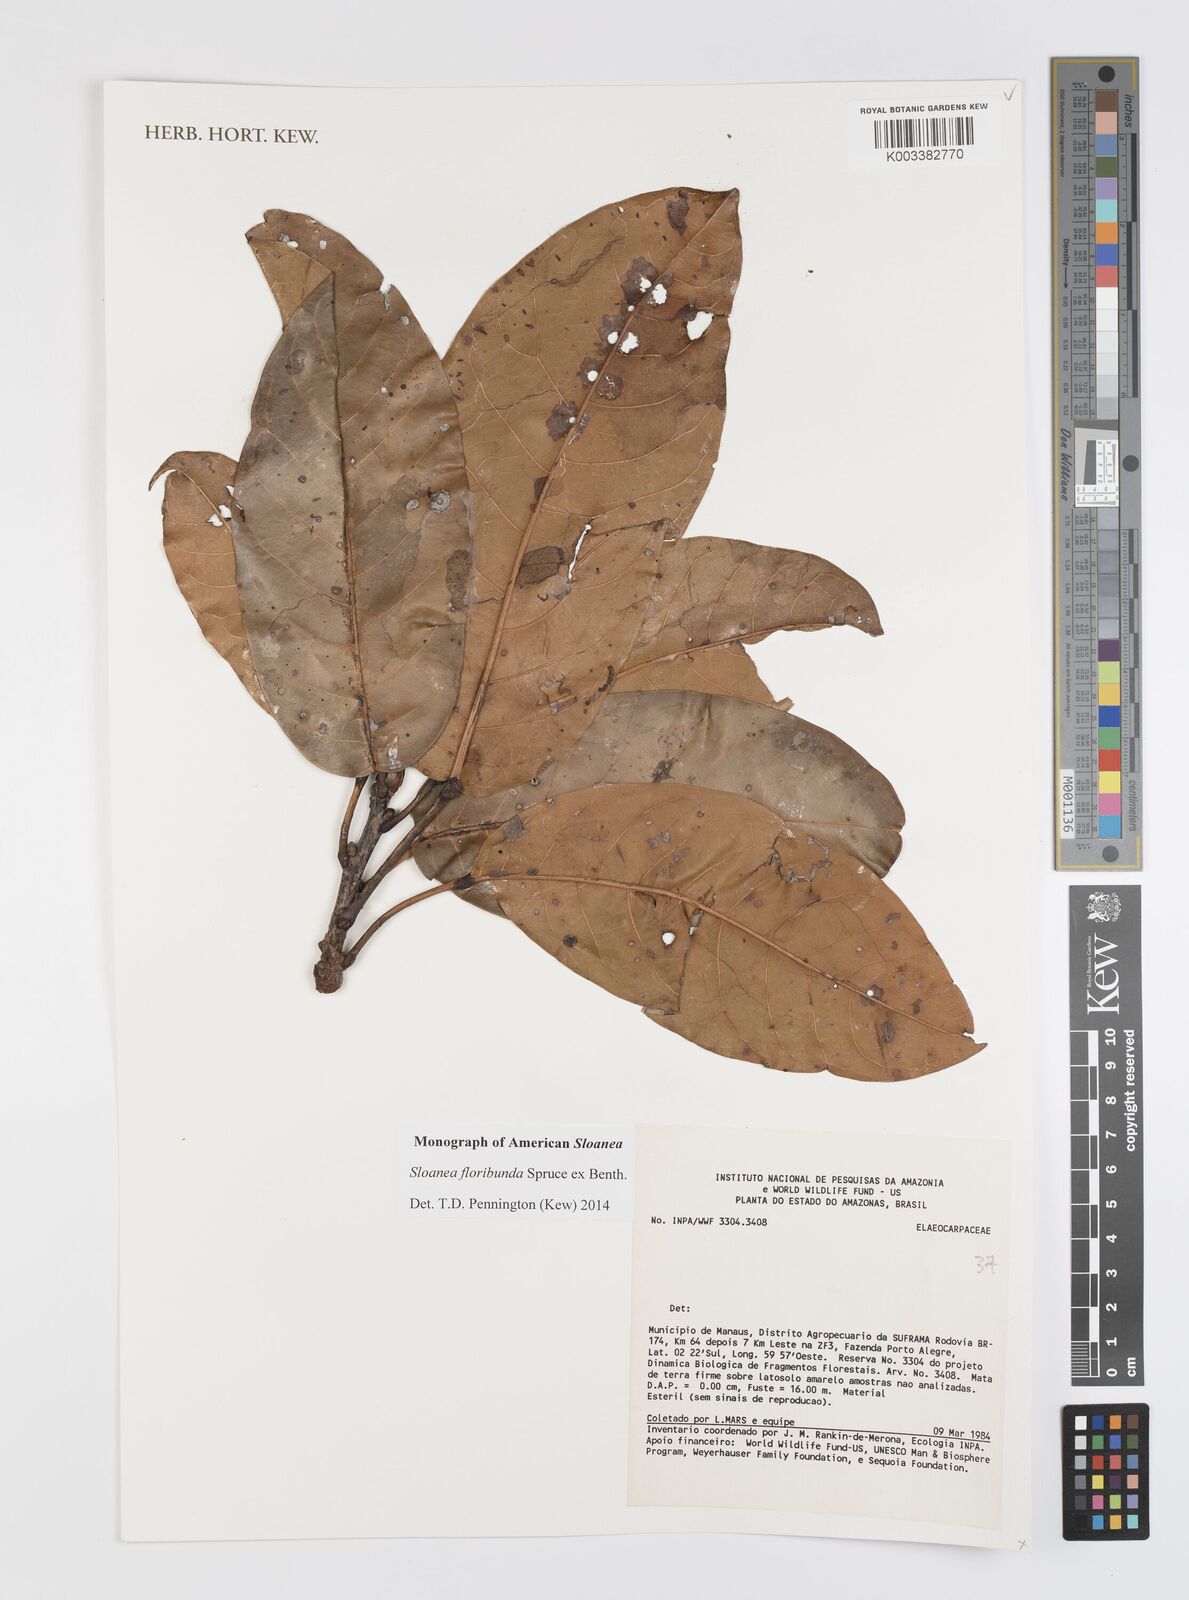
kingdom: Plantae
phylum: Tracheophyta
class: Magnoliopsida
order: Oxalidales
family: Elaeocarpaceae
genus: Sloanea
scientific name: Sloanea floribunda
